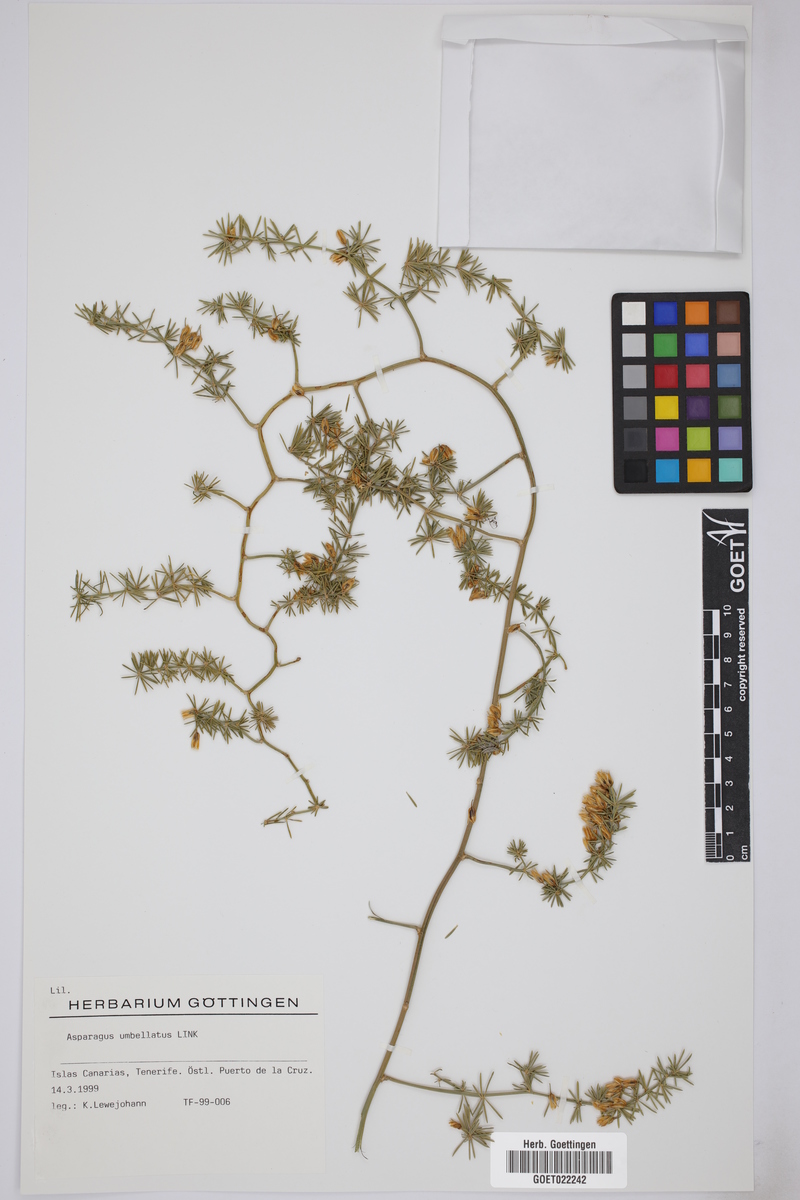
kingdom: Plantae
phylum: Tracheophyta
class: Liliopsida
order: Asparagales
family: Asparagaceae
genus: Asparagus
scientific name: Asparagus umbellatus
